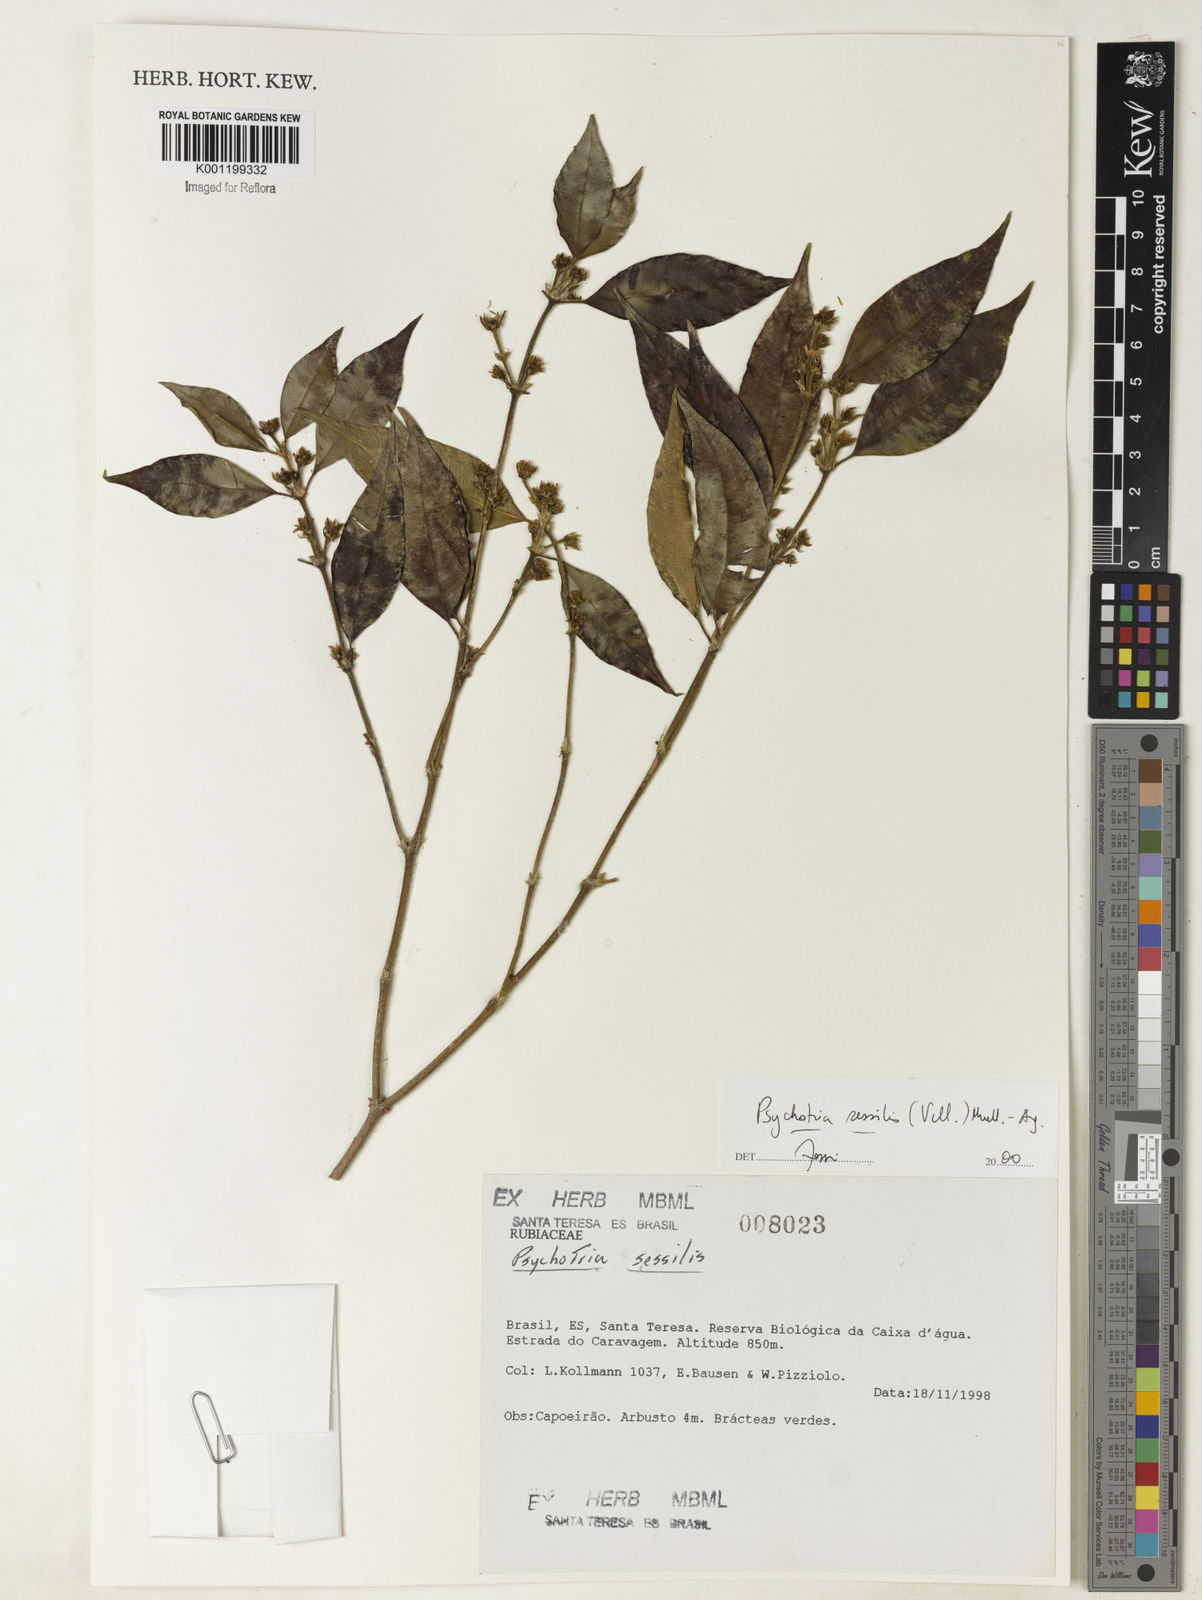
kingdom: Plantae
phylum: Tracheophyta
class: Magnoliopsida
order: Gentianales
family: Rubiaceae
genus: Rudgea
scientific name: Rudgea sessilis
